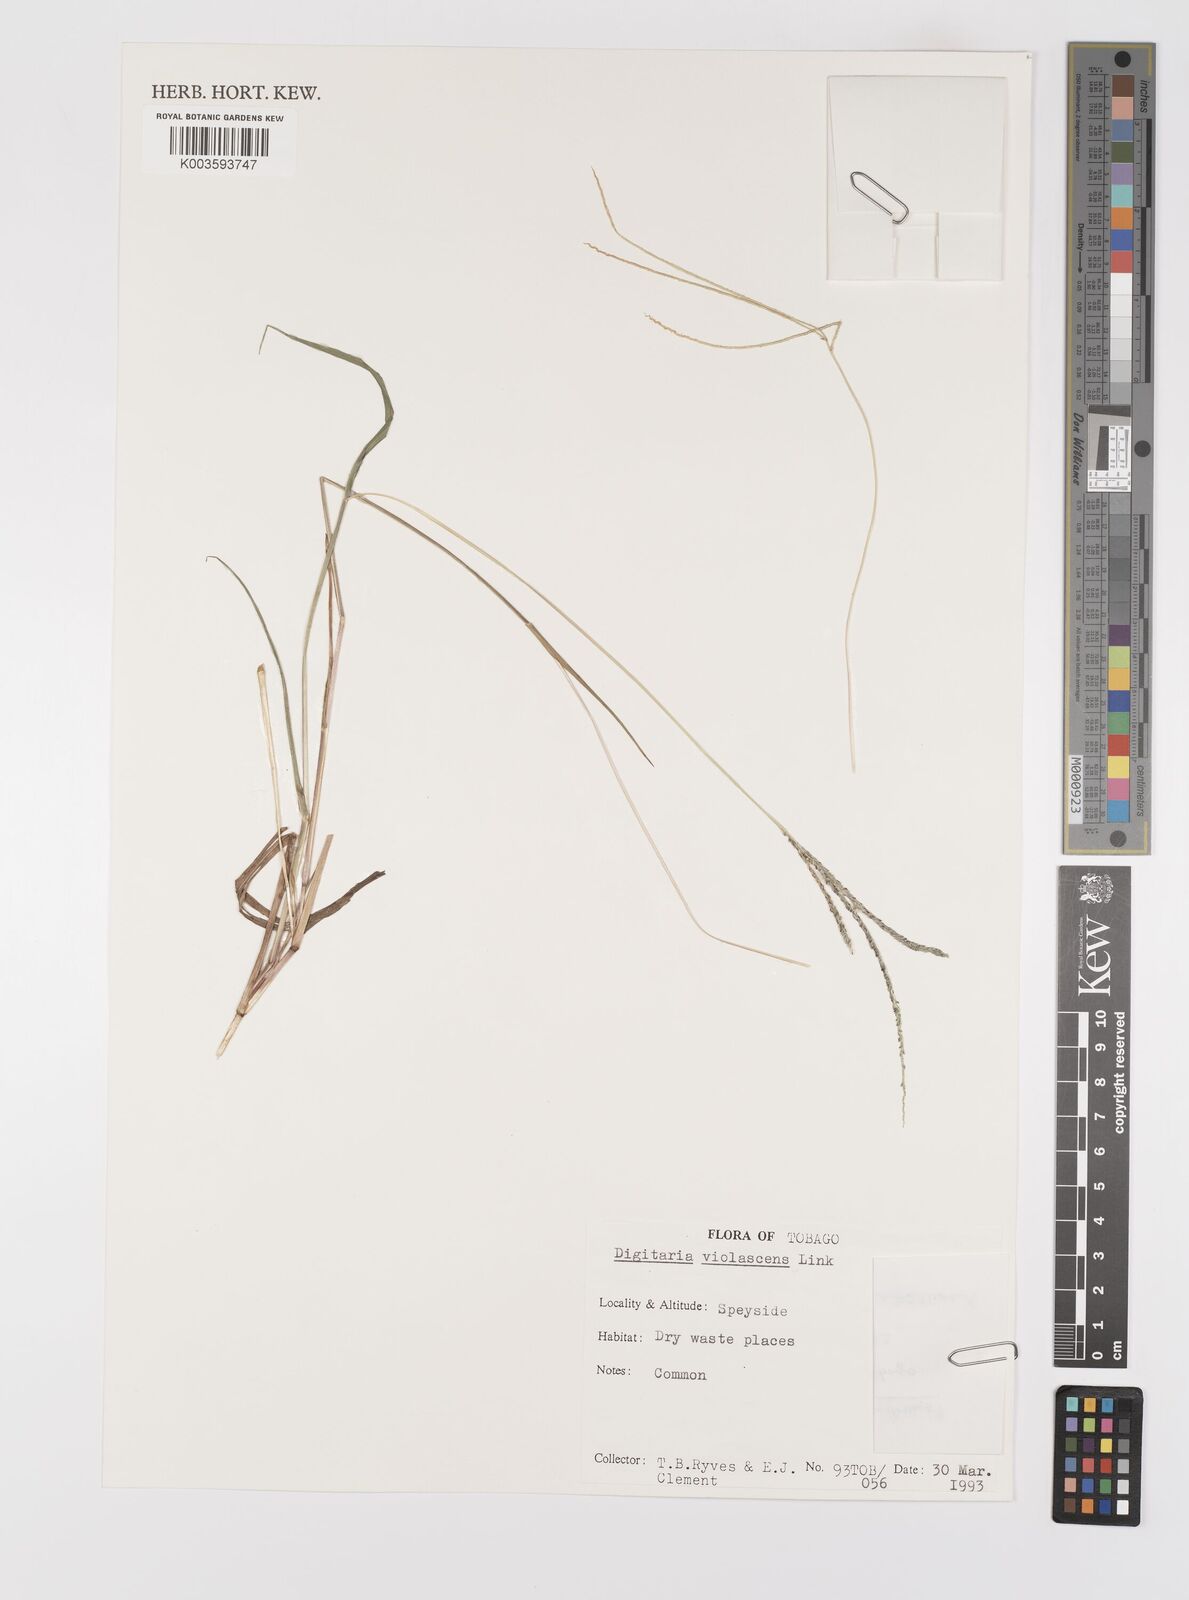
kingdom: Plantae
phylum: Tracheophyta
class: Liliopsida
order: Poales
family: Poaceae
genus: Digitaria
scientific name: Digitaria violascens
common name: Violet crabgrass
